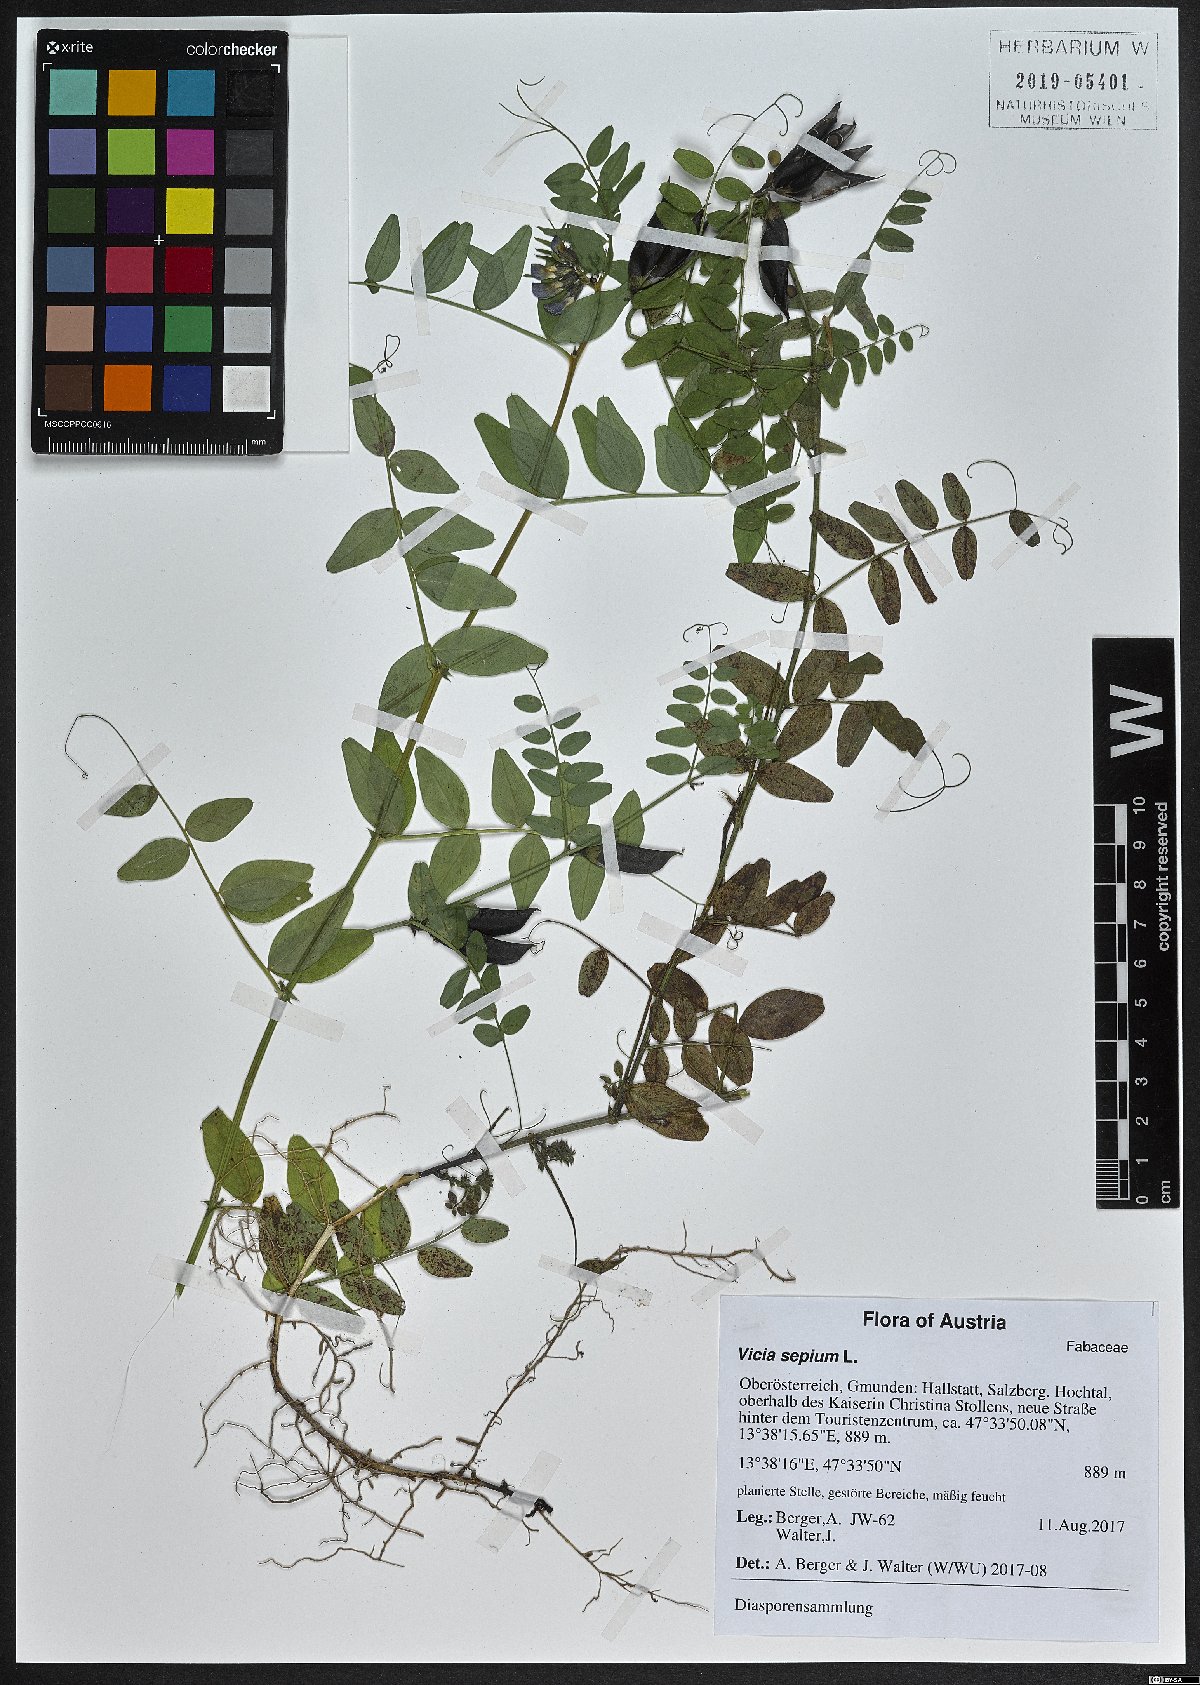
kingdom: Plantae
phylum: Tracheophyta
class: Magnoliopsida
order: Fabales
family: Fabaceae
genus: Vicia
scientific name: Vicia sepium
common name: Bush vetch
